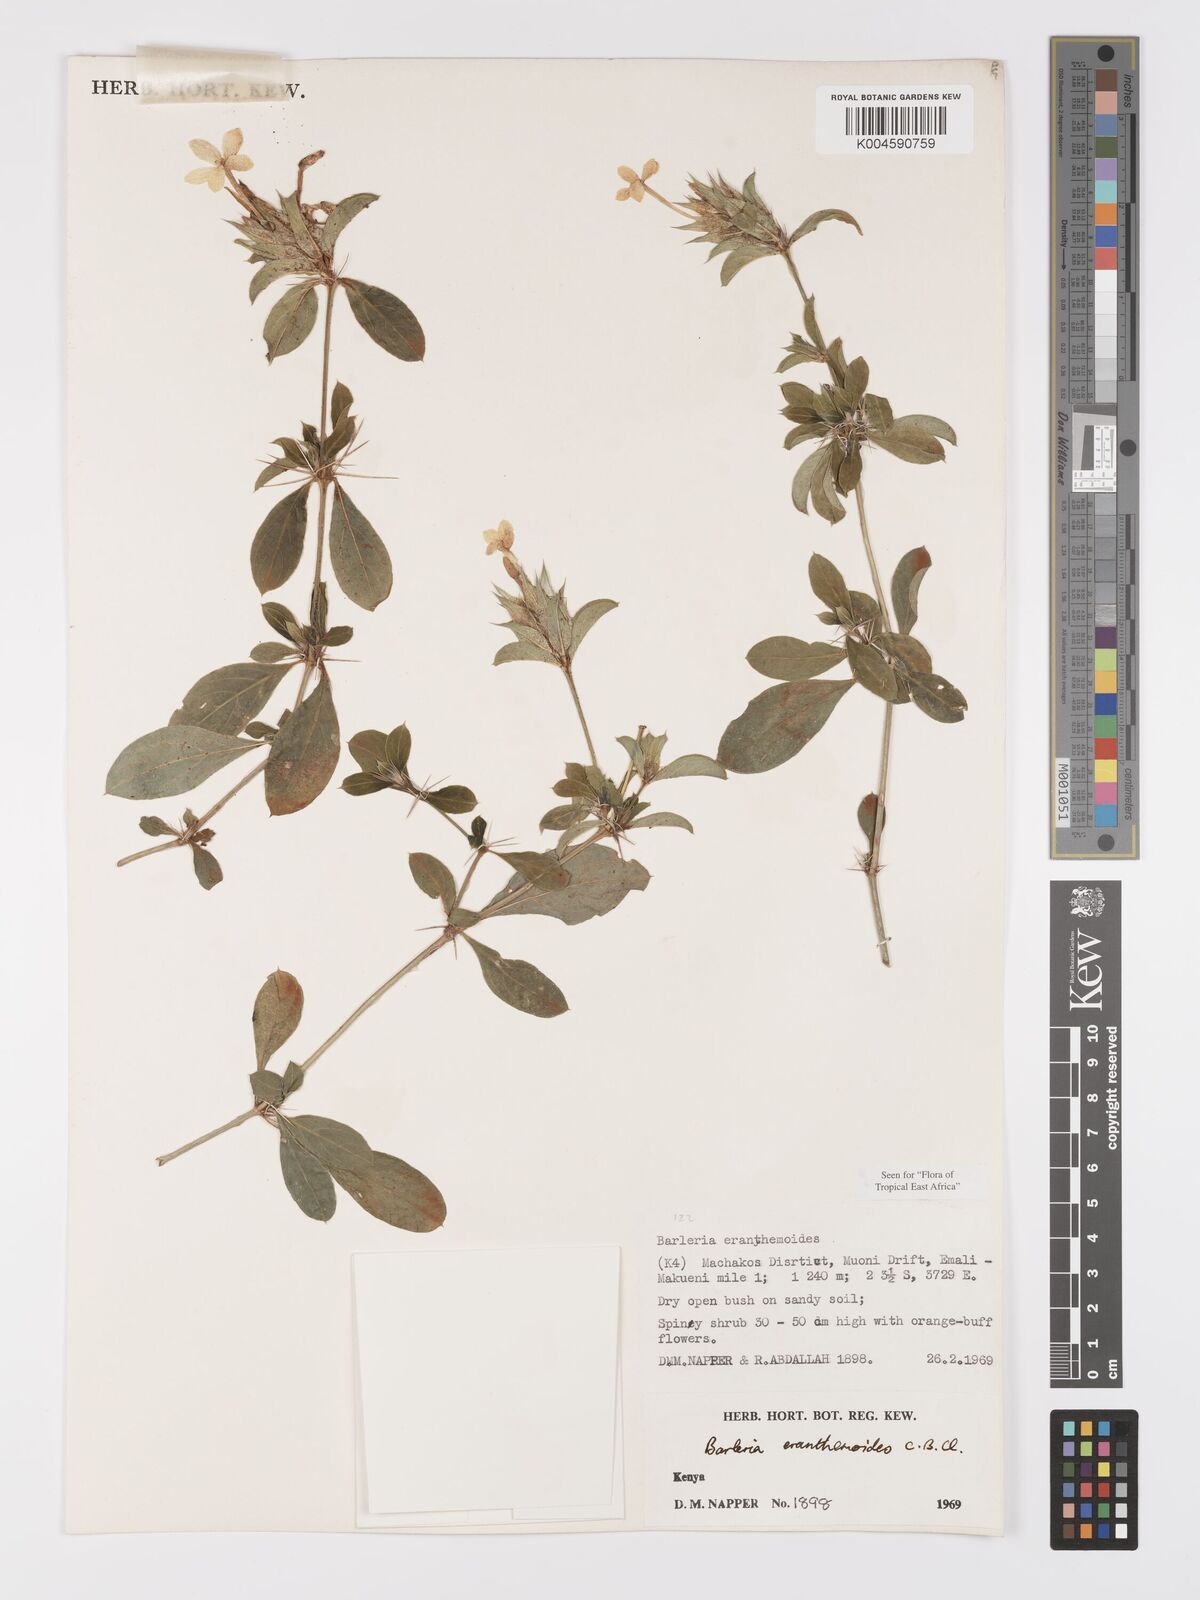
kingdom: Plantae
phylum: Tracheophyta
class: Magnoliopsida
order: Lamiales
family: Acanthaceae
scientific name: Acanthaceae
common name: Acanthaceae
